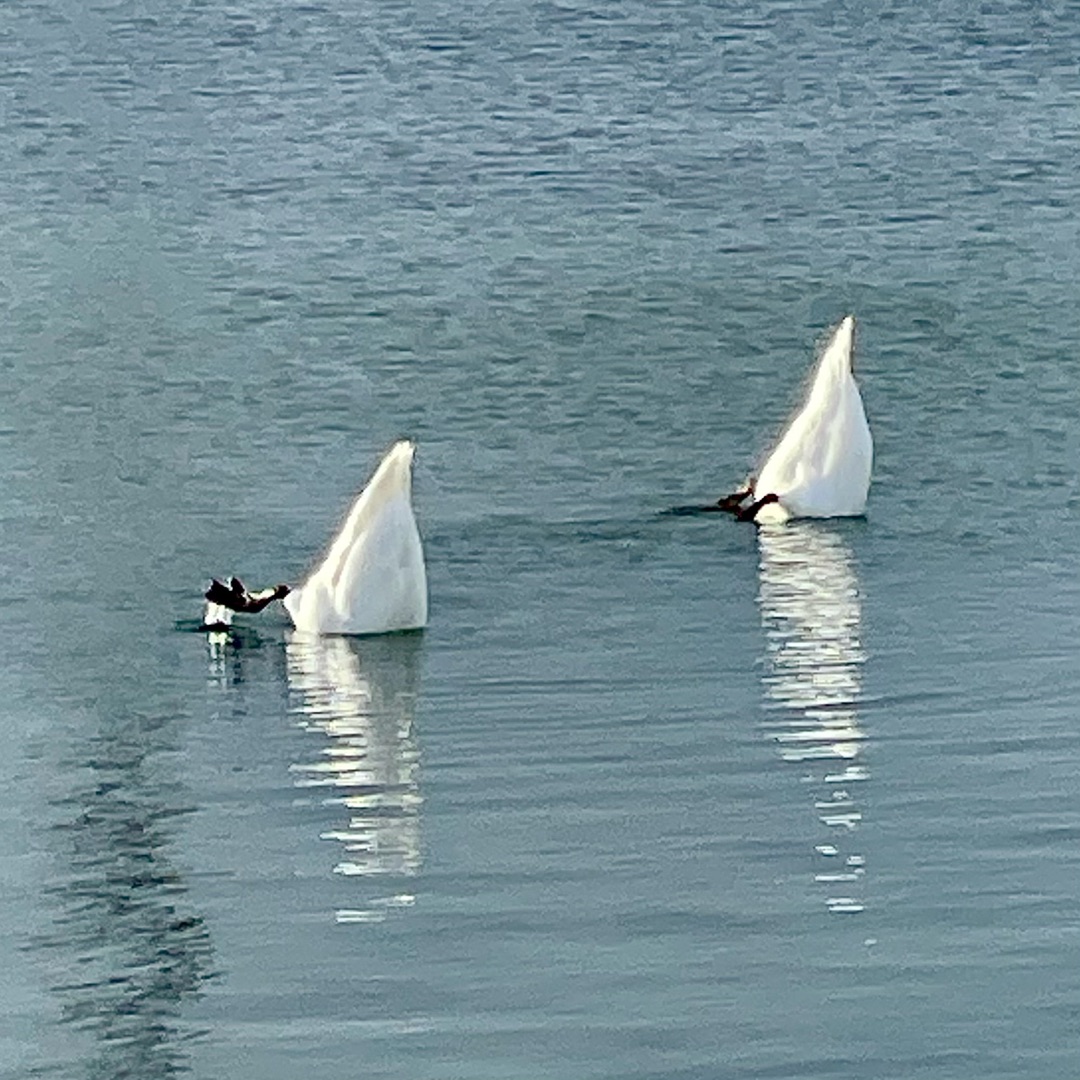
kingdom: Animalia
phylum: Chordata
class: Aves
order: Anseriformes
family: Anatidae
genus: Cygnus
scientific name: Cygnus olor
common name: Knopsvane
